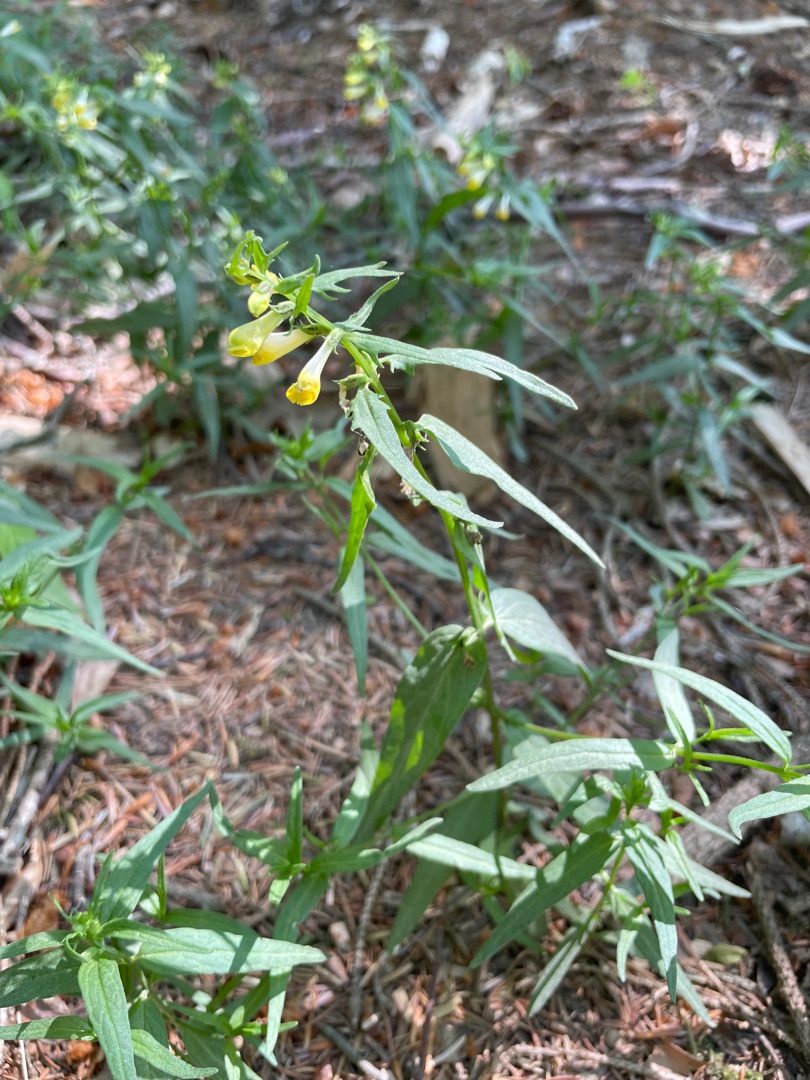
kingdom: Plantae
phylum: Tracheophyta
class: Magnoliopsida
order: Lamiales
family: Orobanchaceae
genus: Melampyrum
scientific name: Melampyrum pratense
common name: Almindelig kohvede
